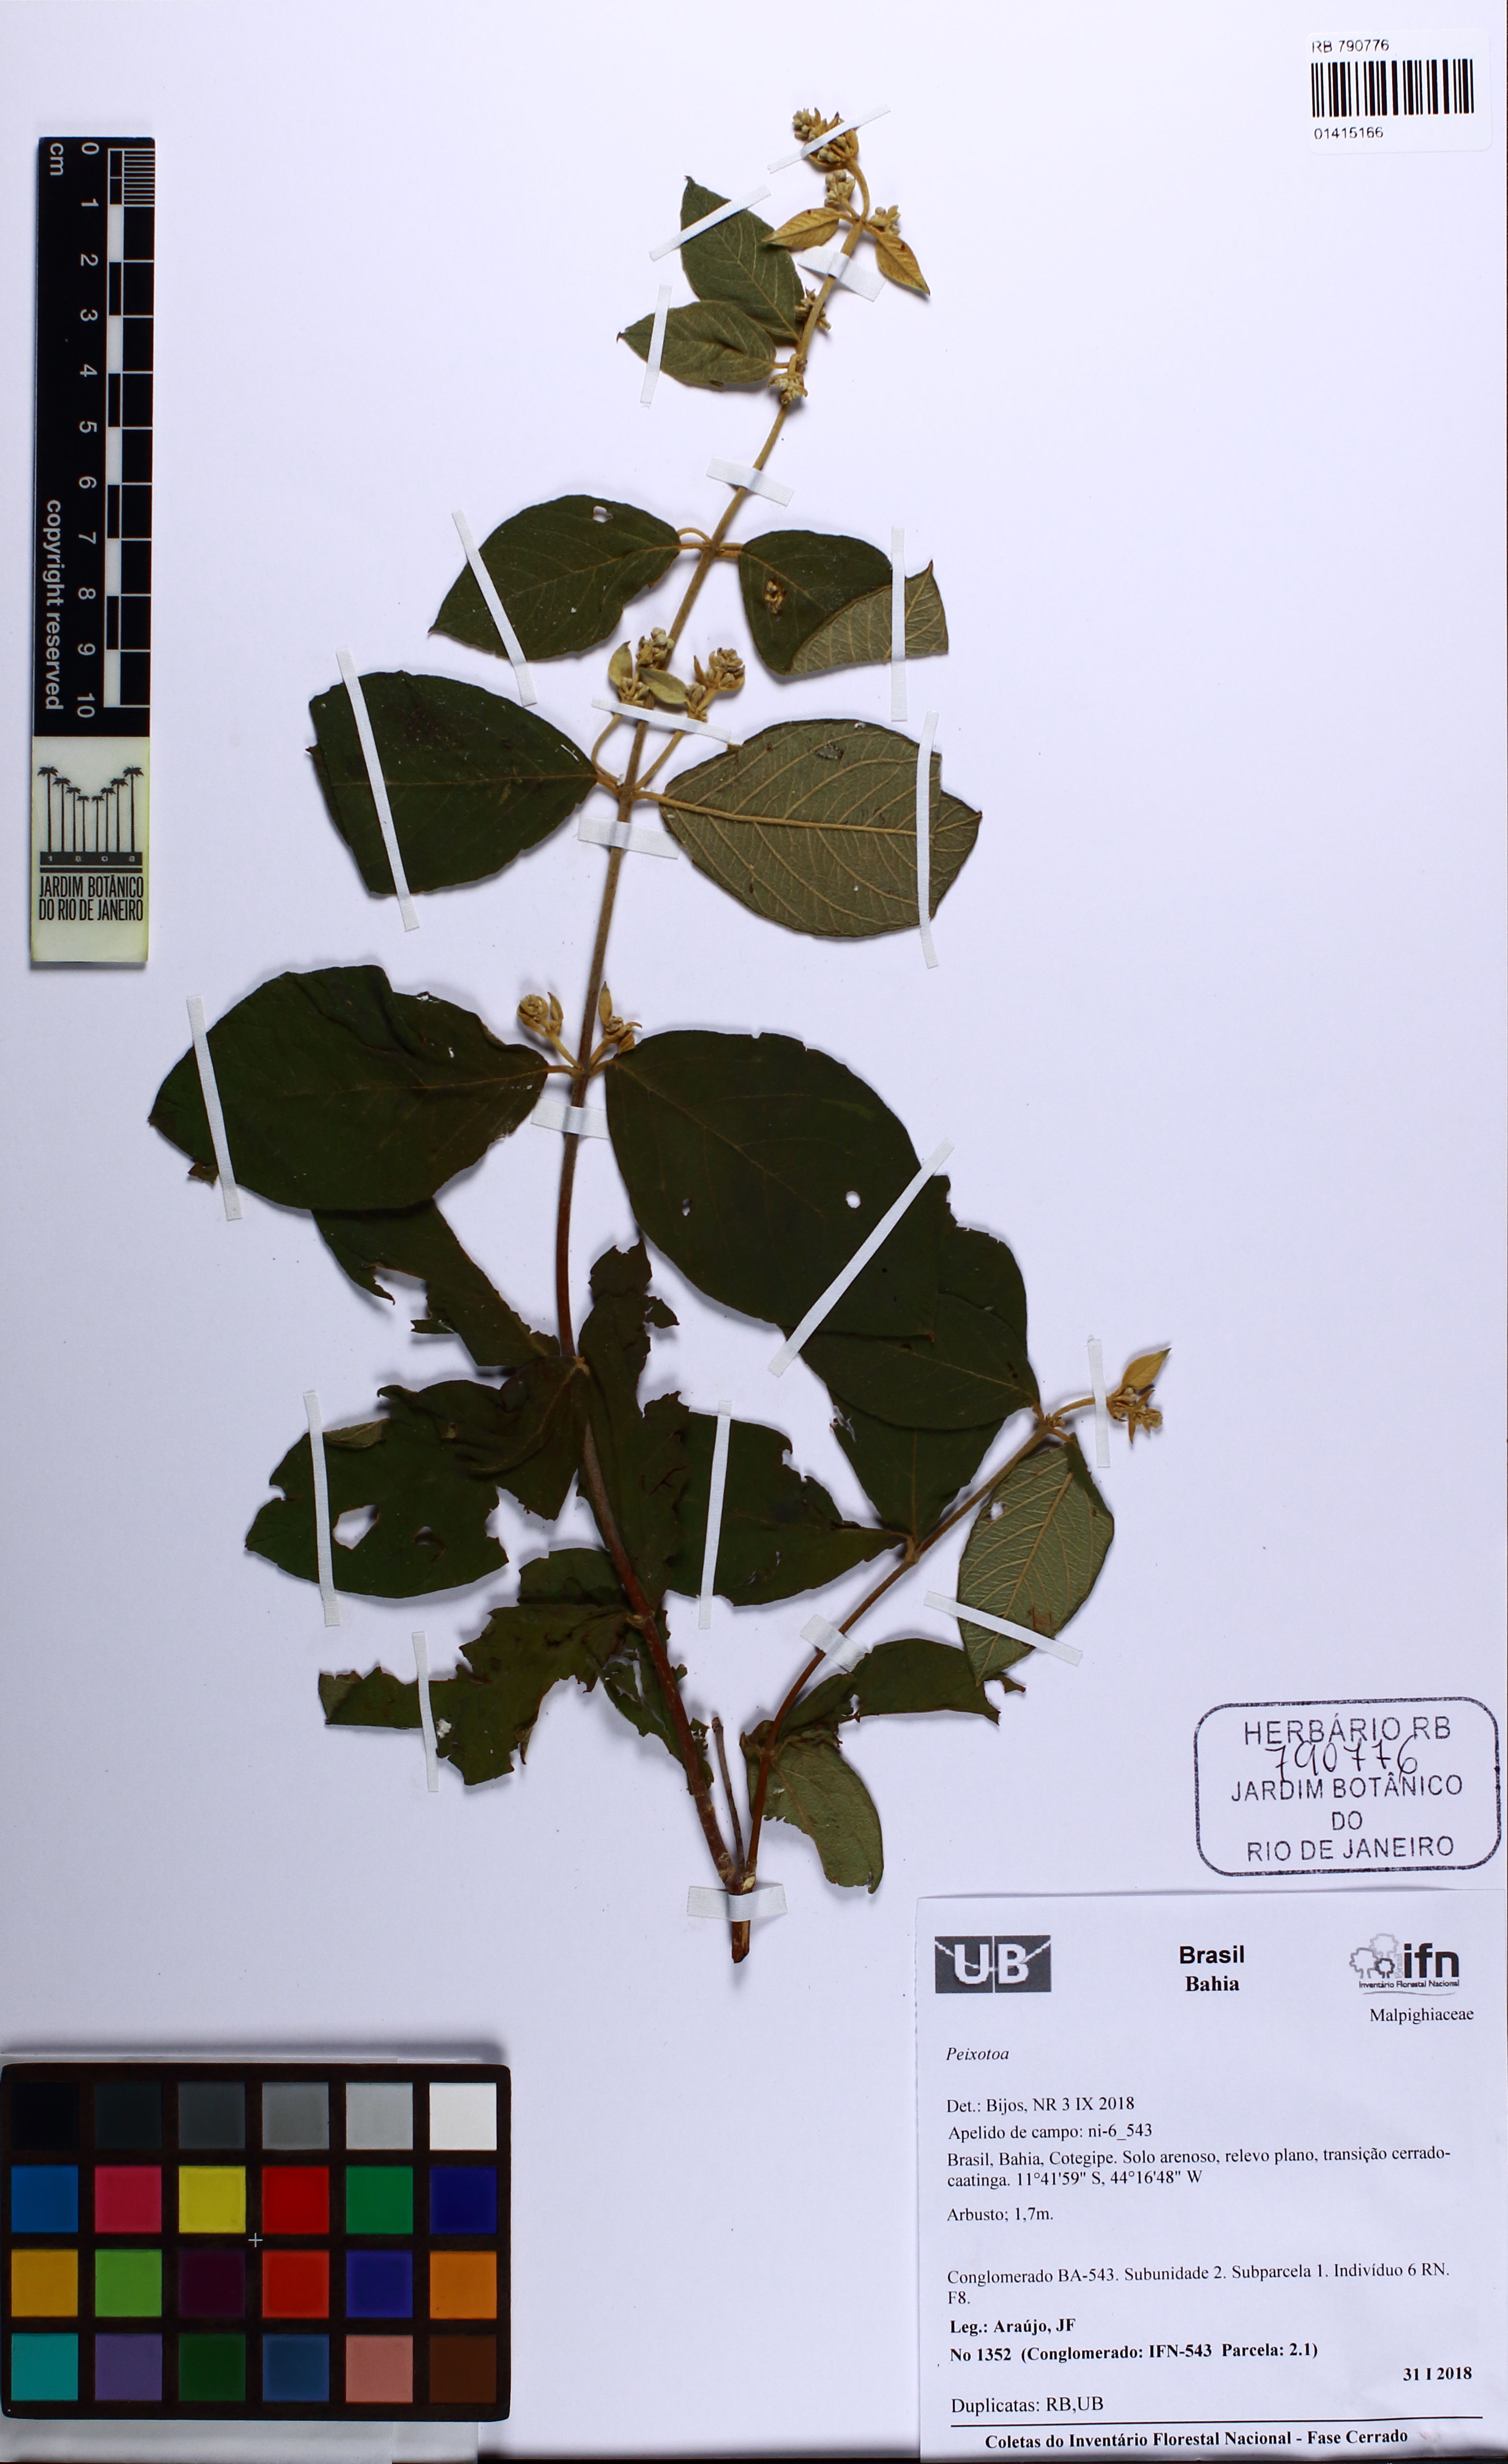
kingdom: Plantae
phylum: Tracheophyta
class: Magnoliopsida
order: Malpighiales
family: Malpighiaceae
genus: Banisteriopsis
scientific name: Banisteriopsis
